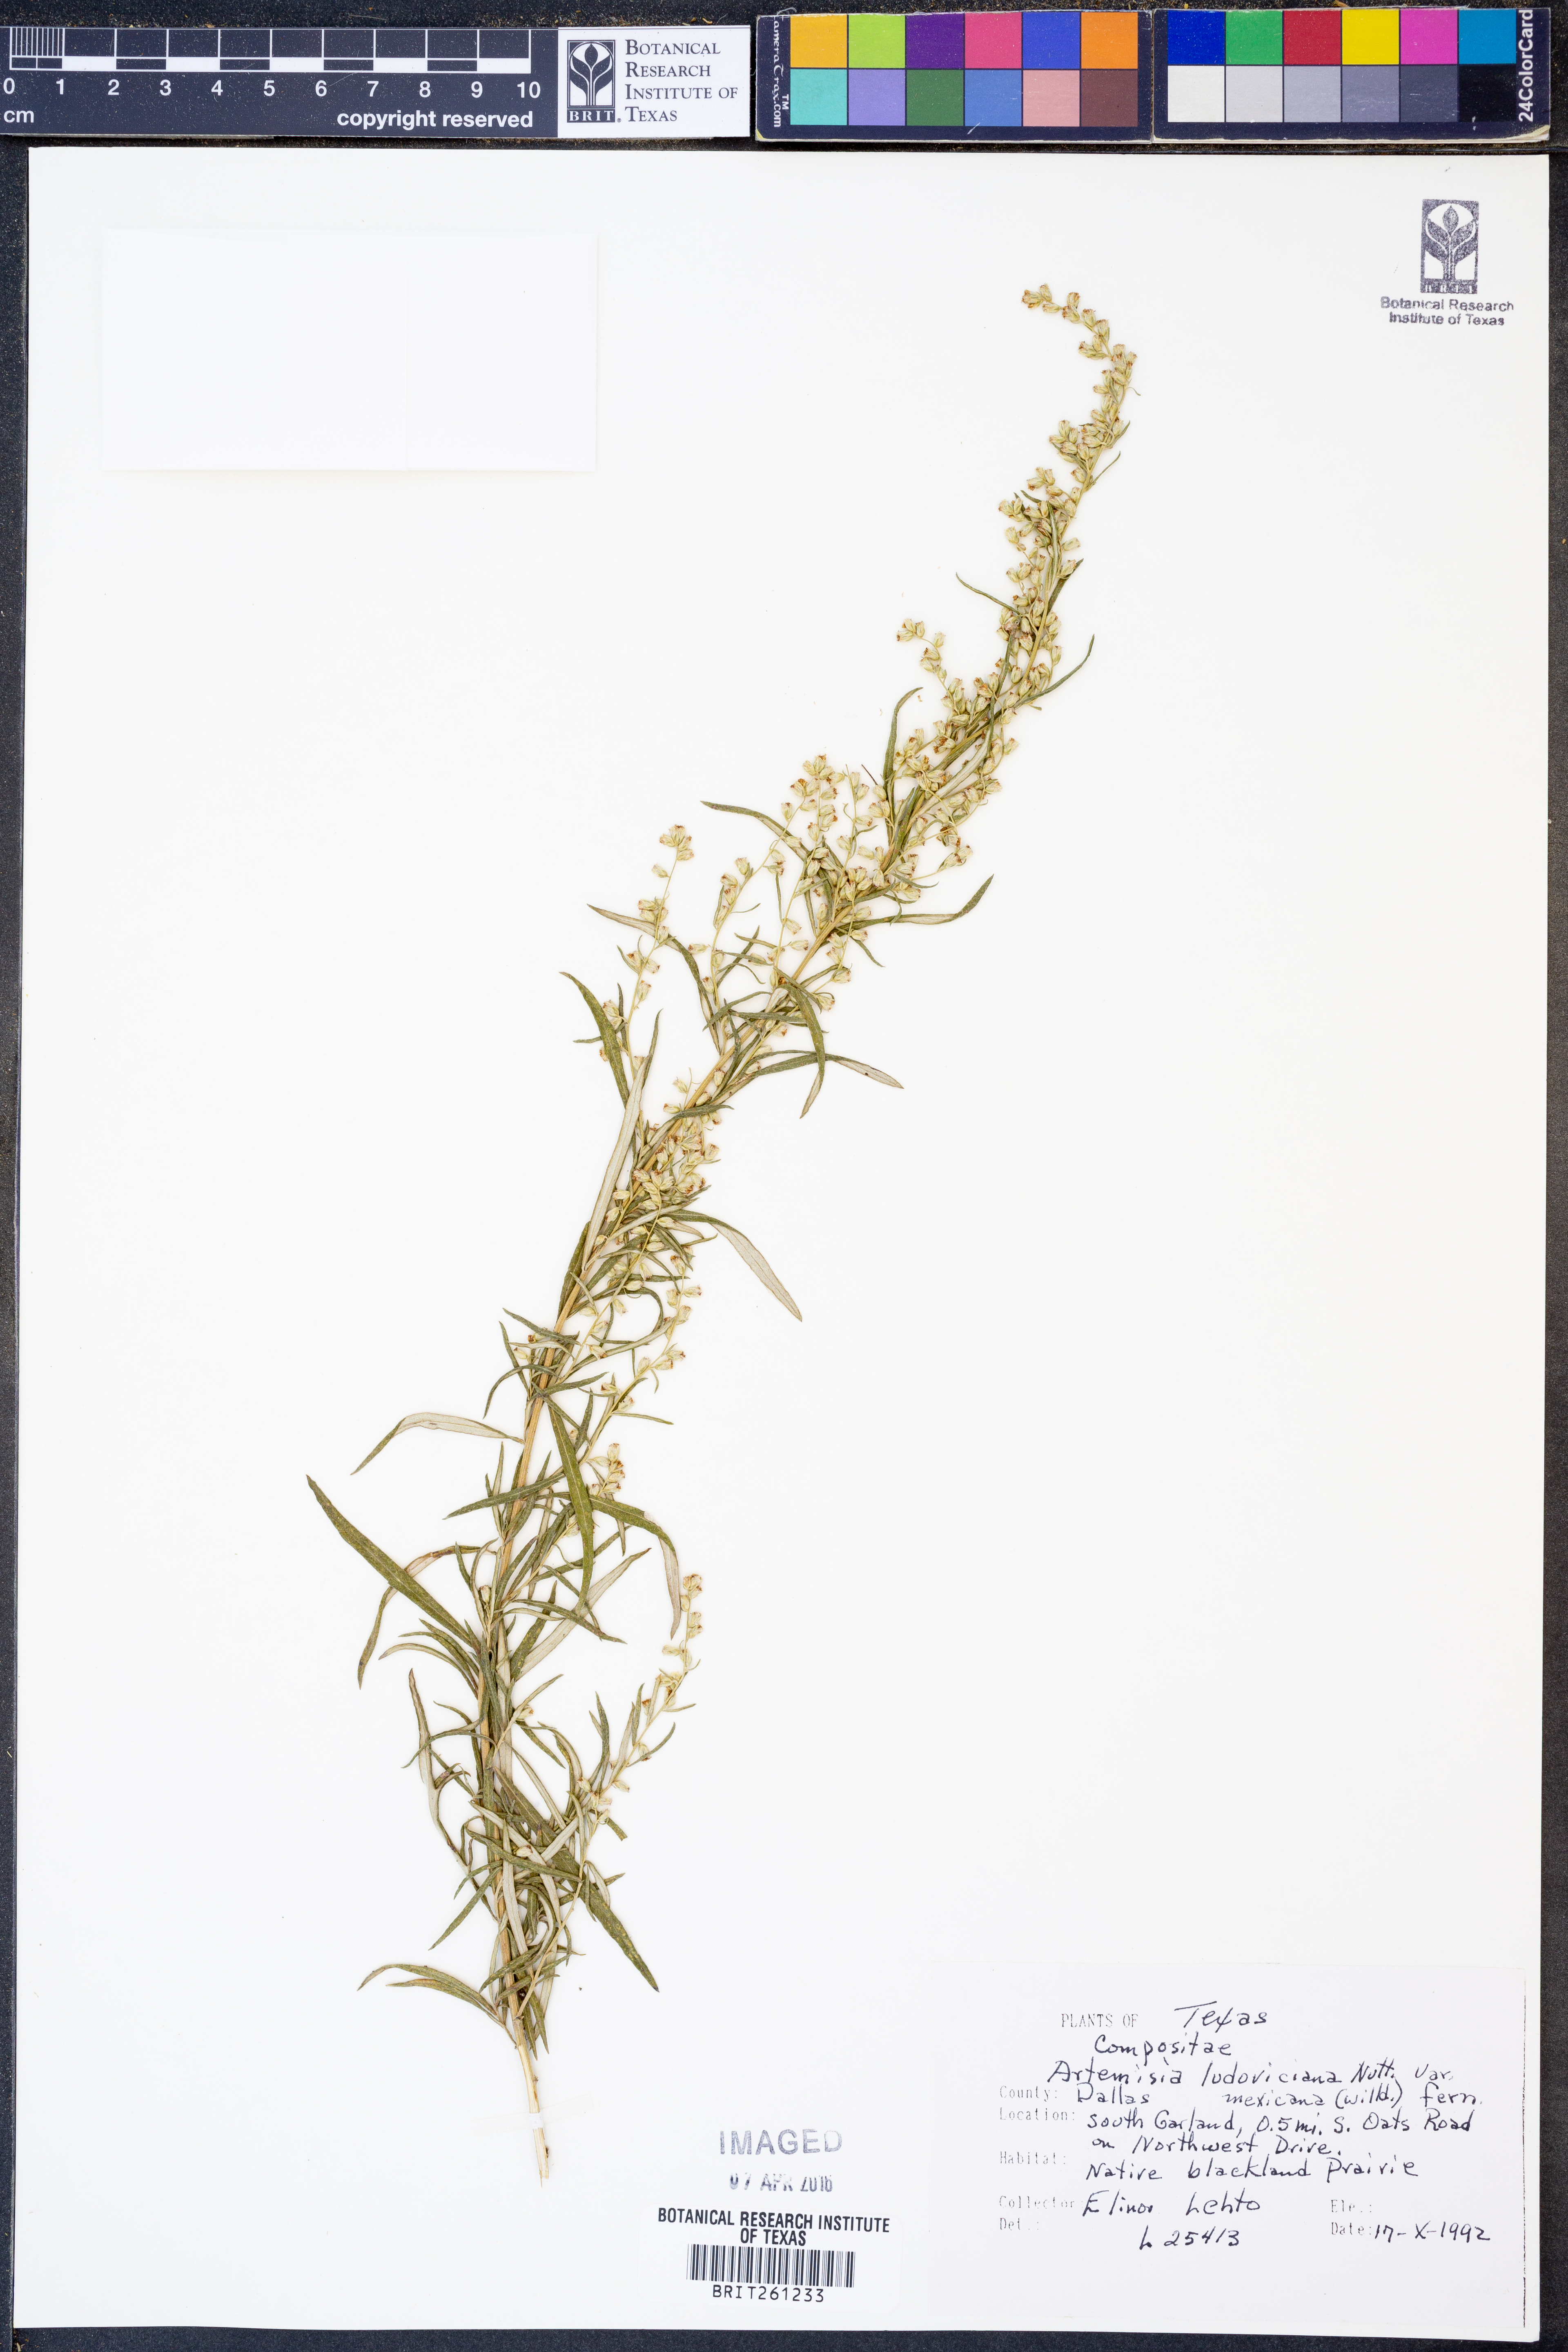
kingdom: Plantae
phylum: Tracheophyta
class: Magnoliopsida
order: Asterales
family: Asteraceae
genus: Artemisia
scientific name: Artemisia ludoviciana
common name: Western mugwort
